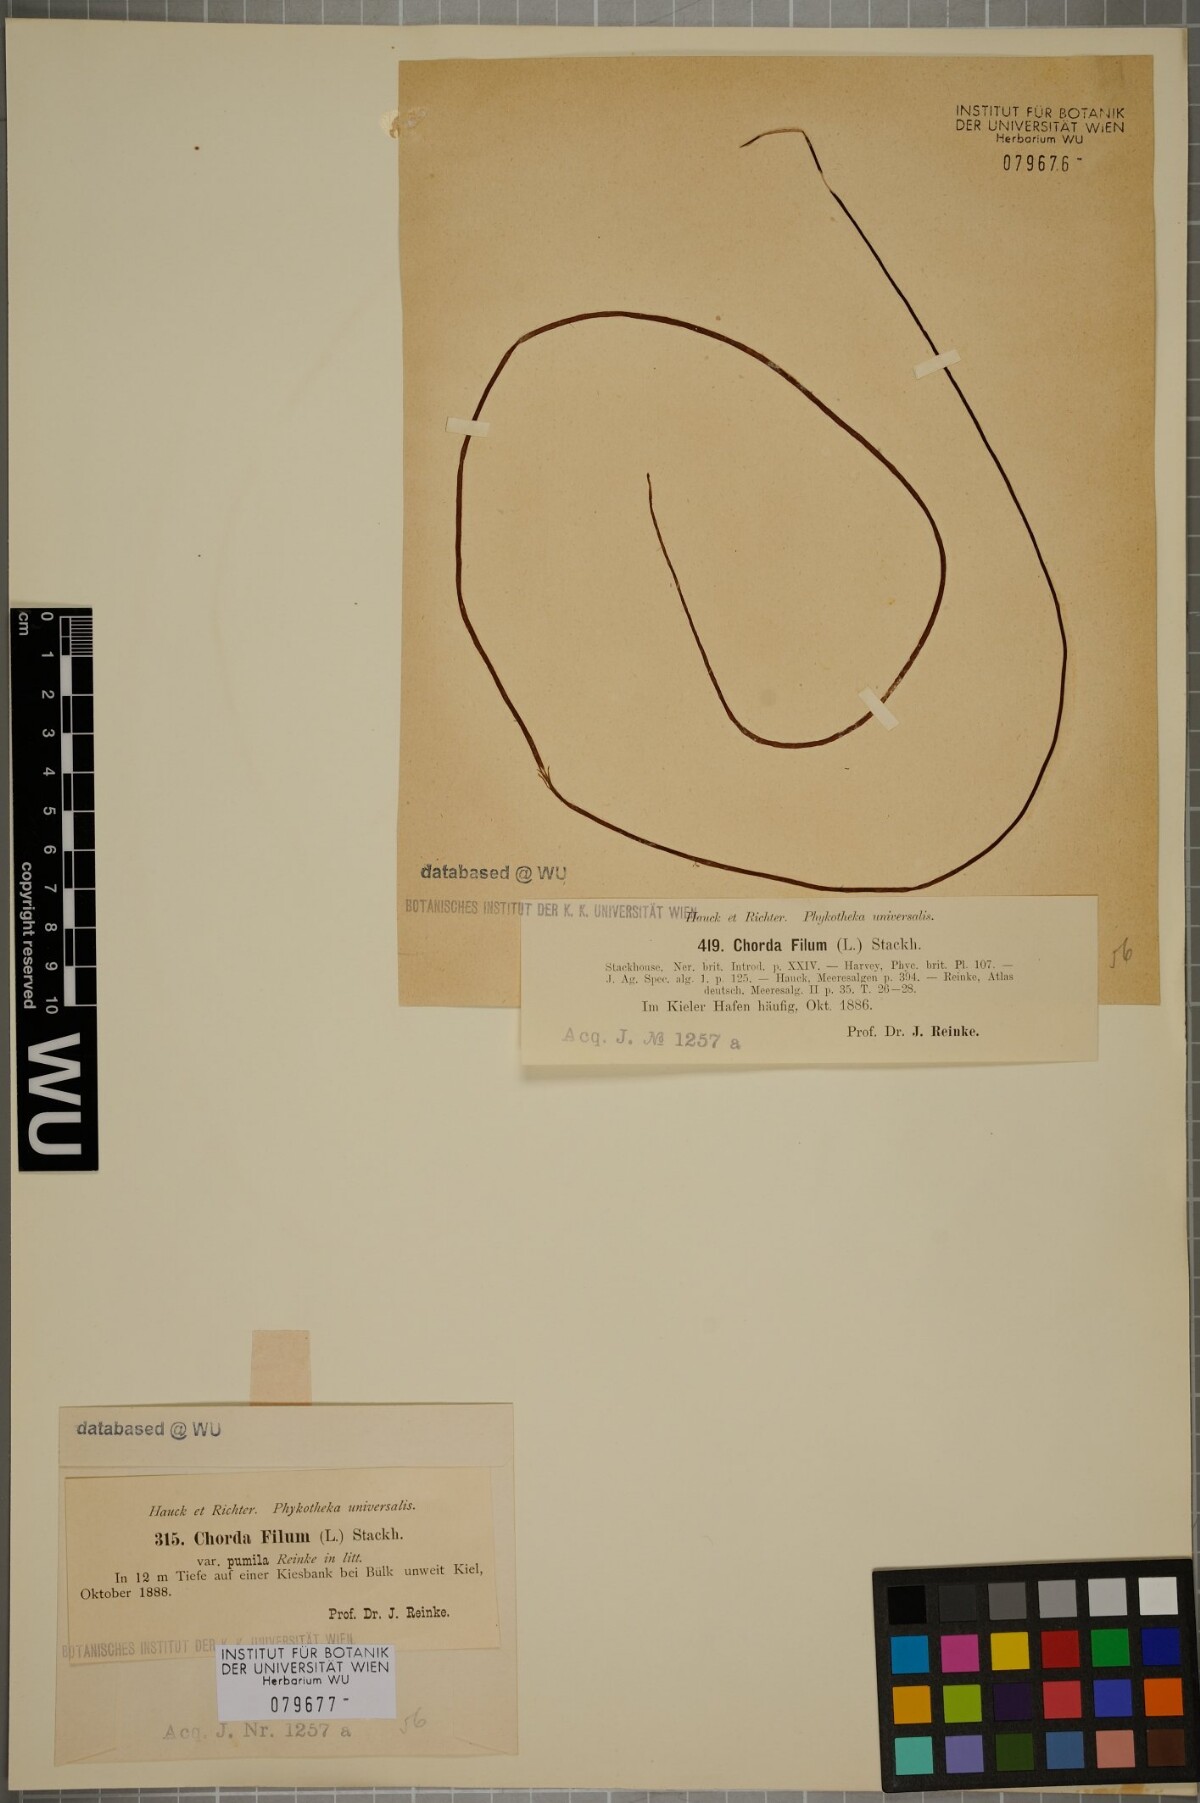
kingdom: Chromista
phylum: Ochrophyta
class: Phaeophyceae
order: Laminariales
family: Chordaceae
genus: Chorda
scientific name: Chorda filum
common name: Mermaid's tresses
